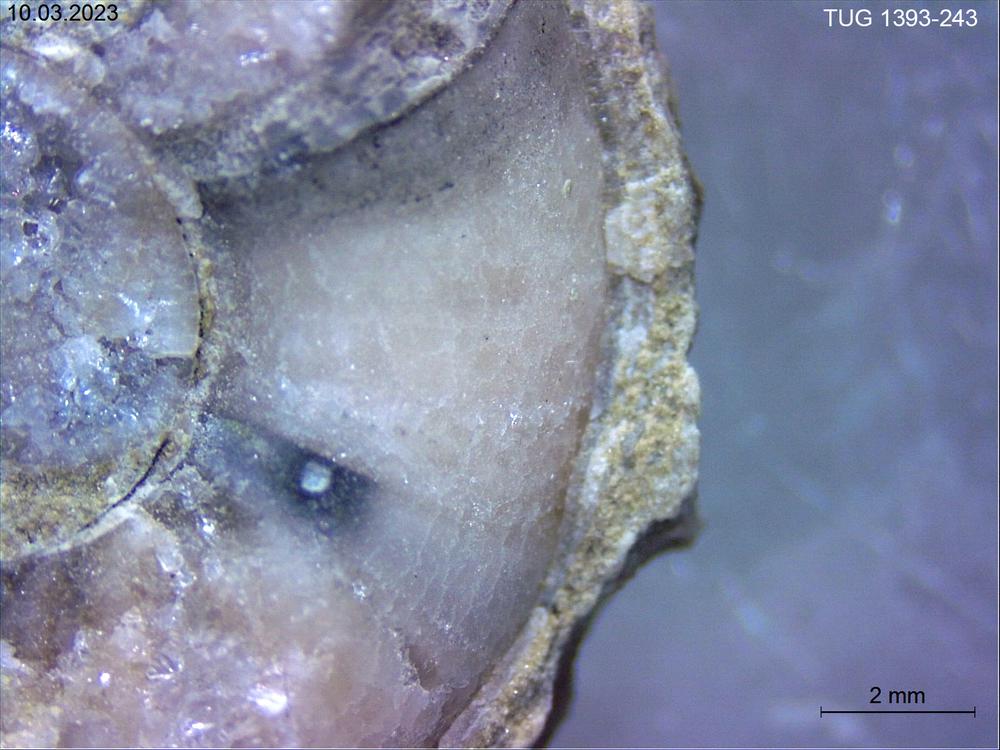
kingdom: Animalia
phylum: Mollusca
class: Cephalopoda
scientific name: Cephalopoda
